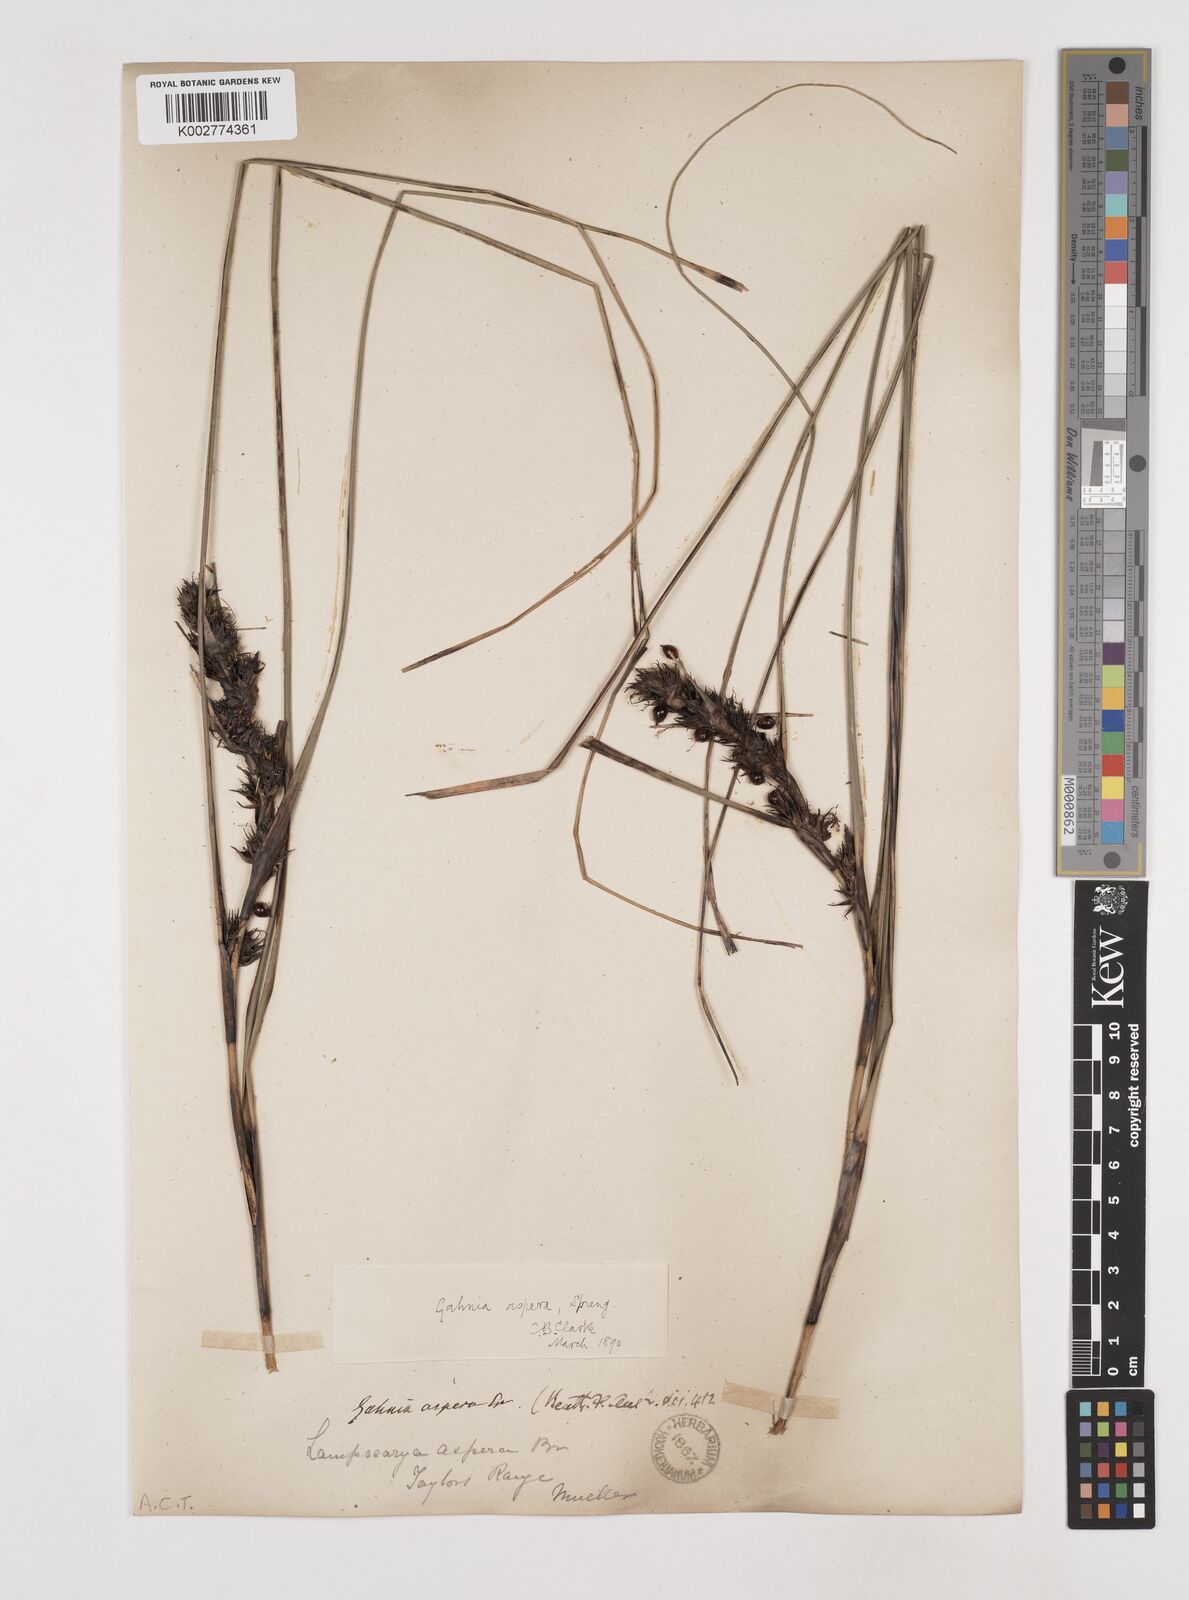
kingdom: Plantae
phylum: Tracheophyta
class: Liliopsida
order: Poales
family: Cyperaceae
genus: Gahnia
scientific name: Gahnia aspera
